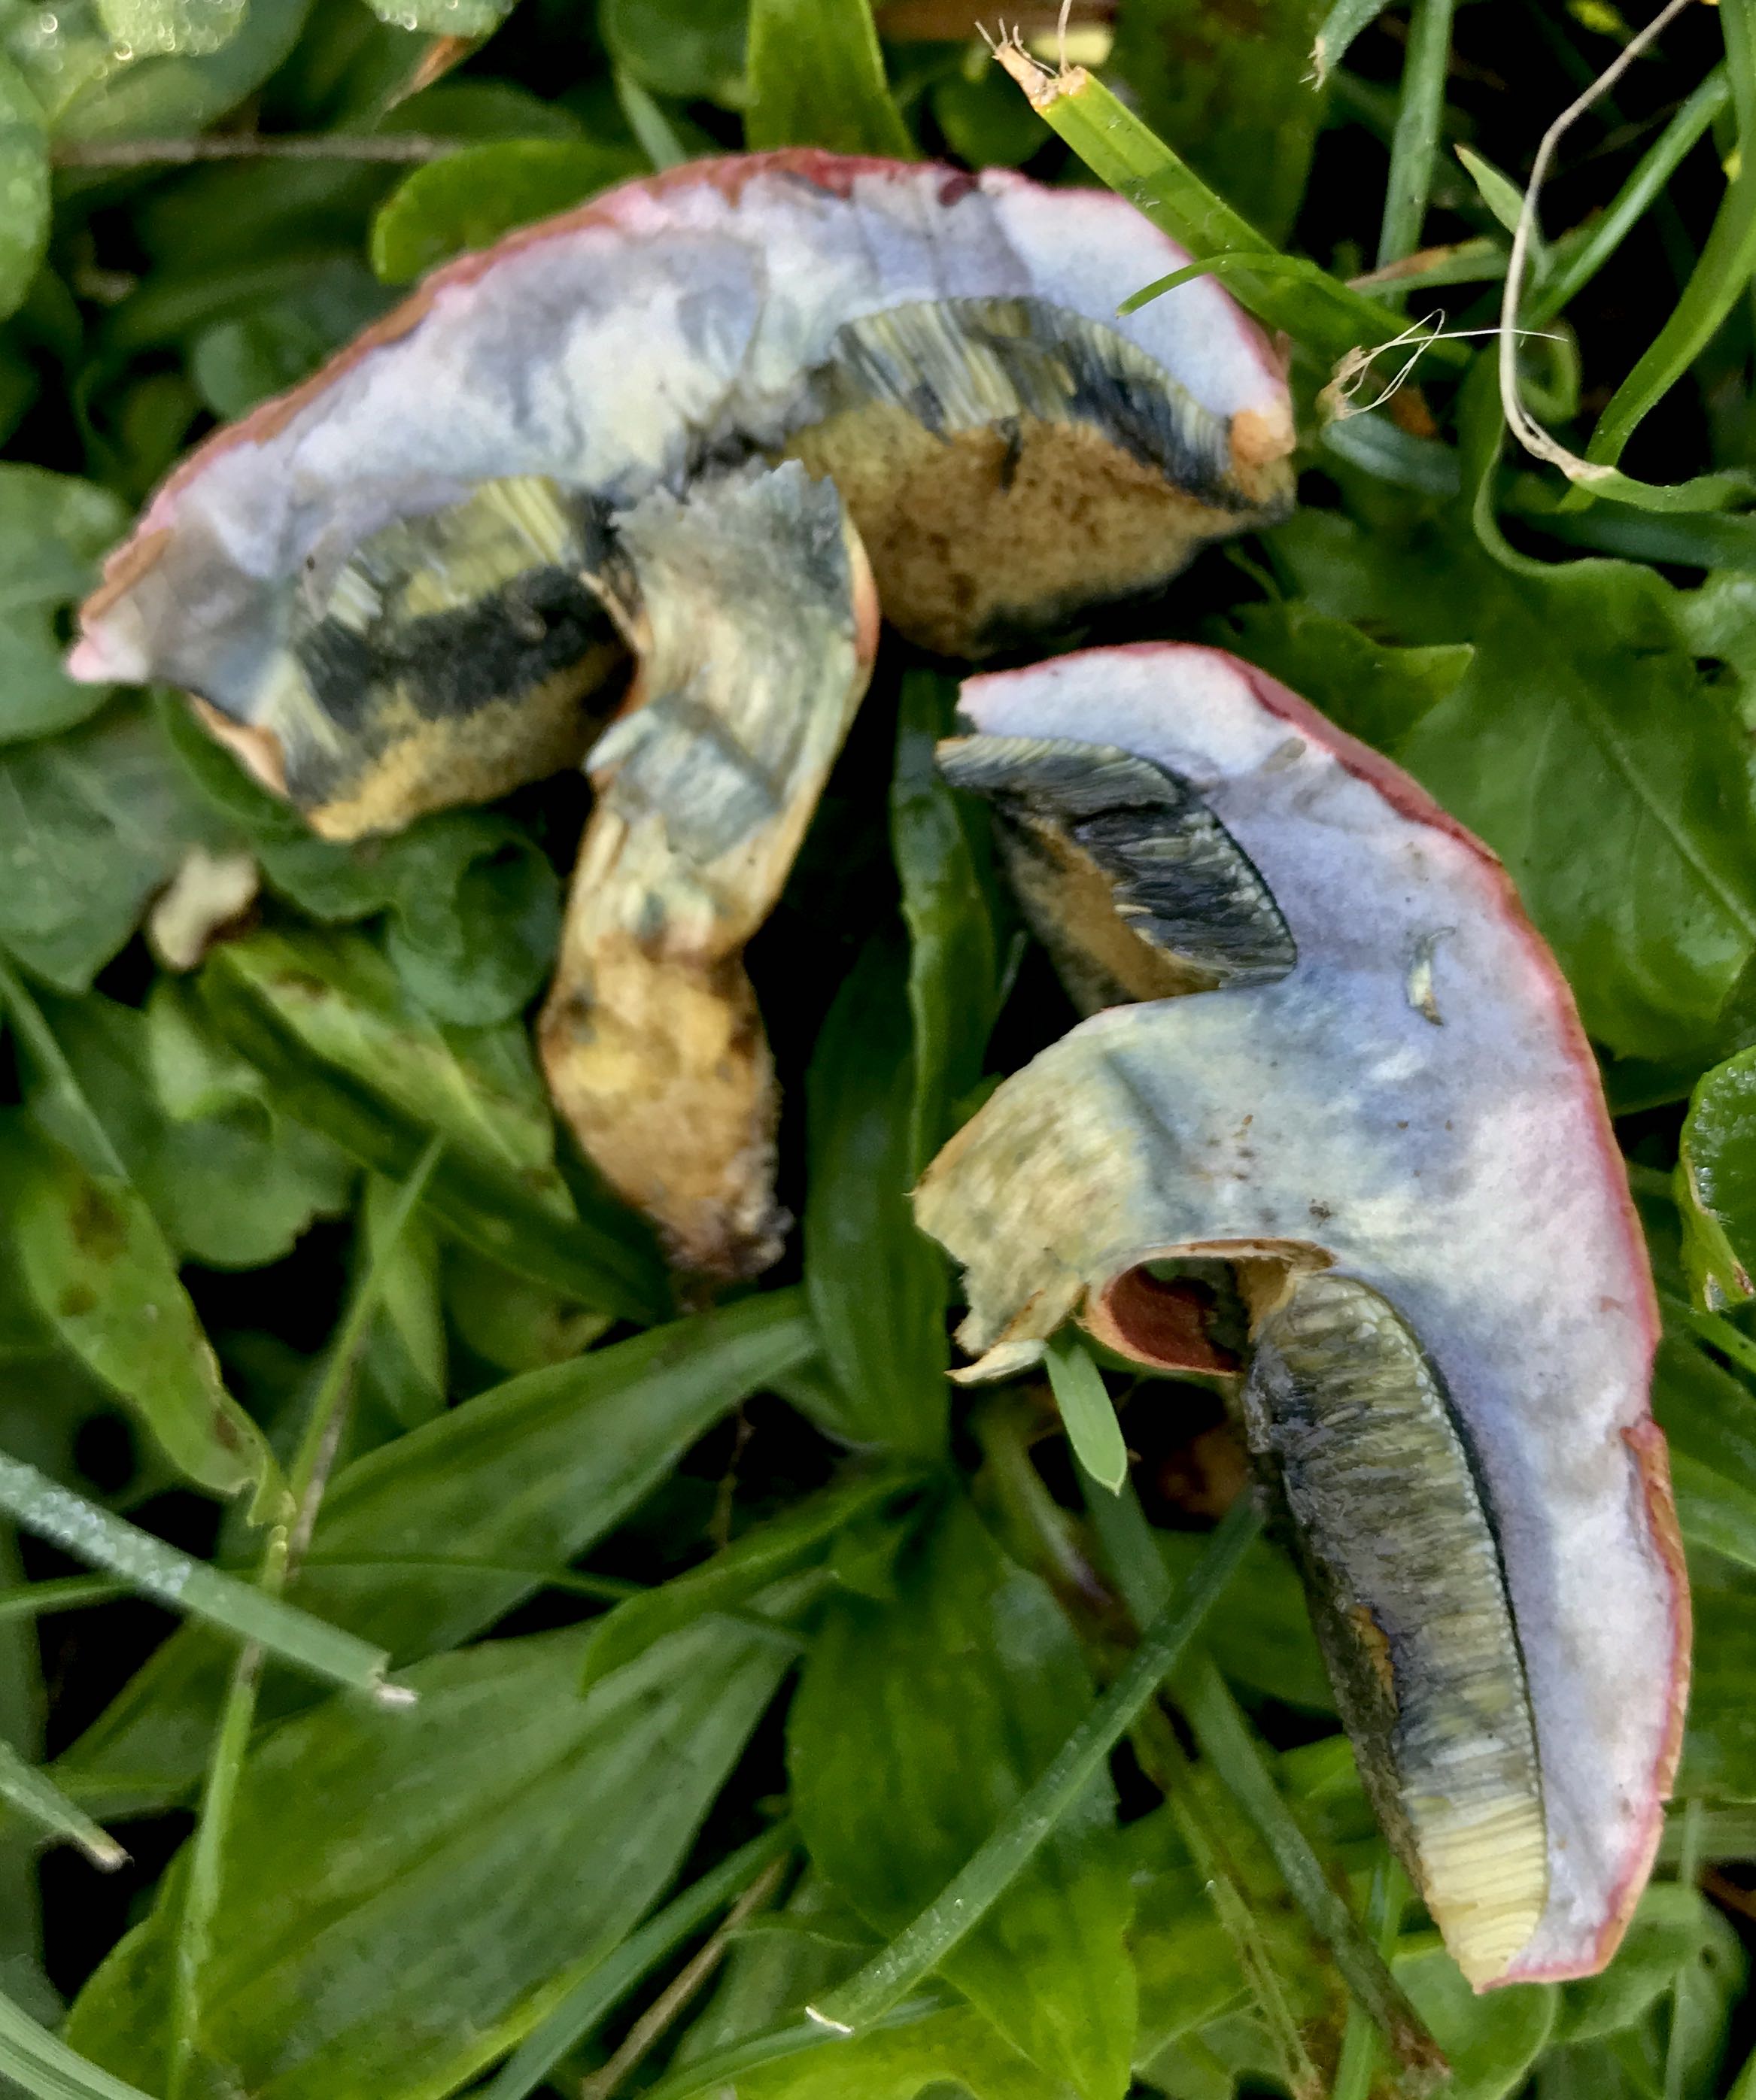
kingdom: Fungi
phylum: Basidiomycota
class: Agaricomycetes
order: Boletales
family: Boletaceae
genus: Hortiboletus
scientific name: Hortiboletus bubalinus
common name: aurora-rørhat
